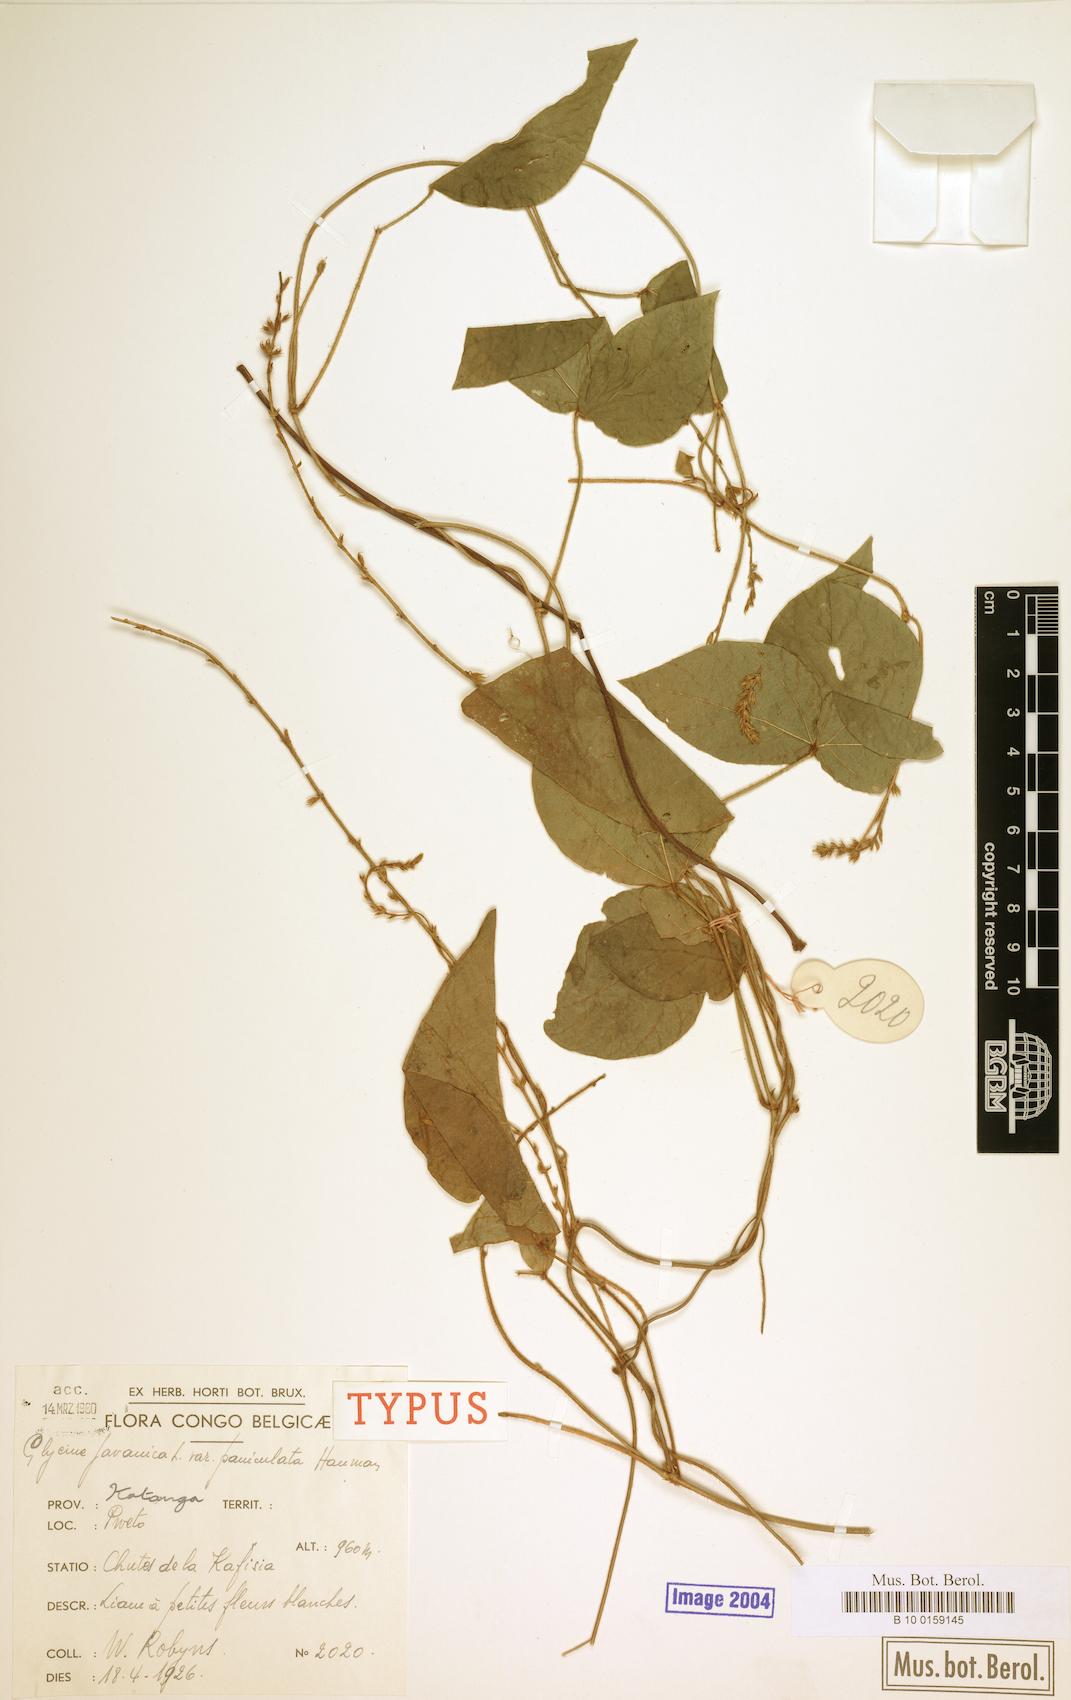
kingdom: Plantae
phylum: Tracheophyta
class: Magnoliopsida
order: Fabales
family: Fabaceae
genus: Neonotonia
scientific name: Neonotonia wightii
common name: Perennial soybean
